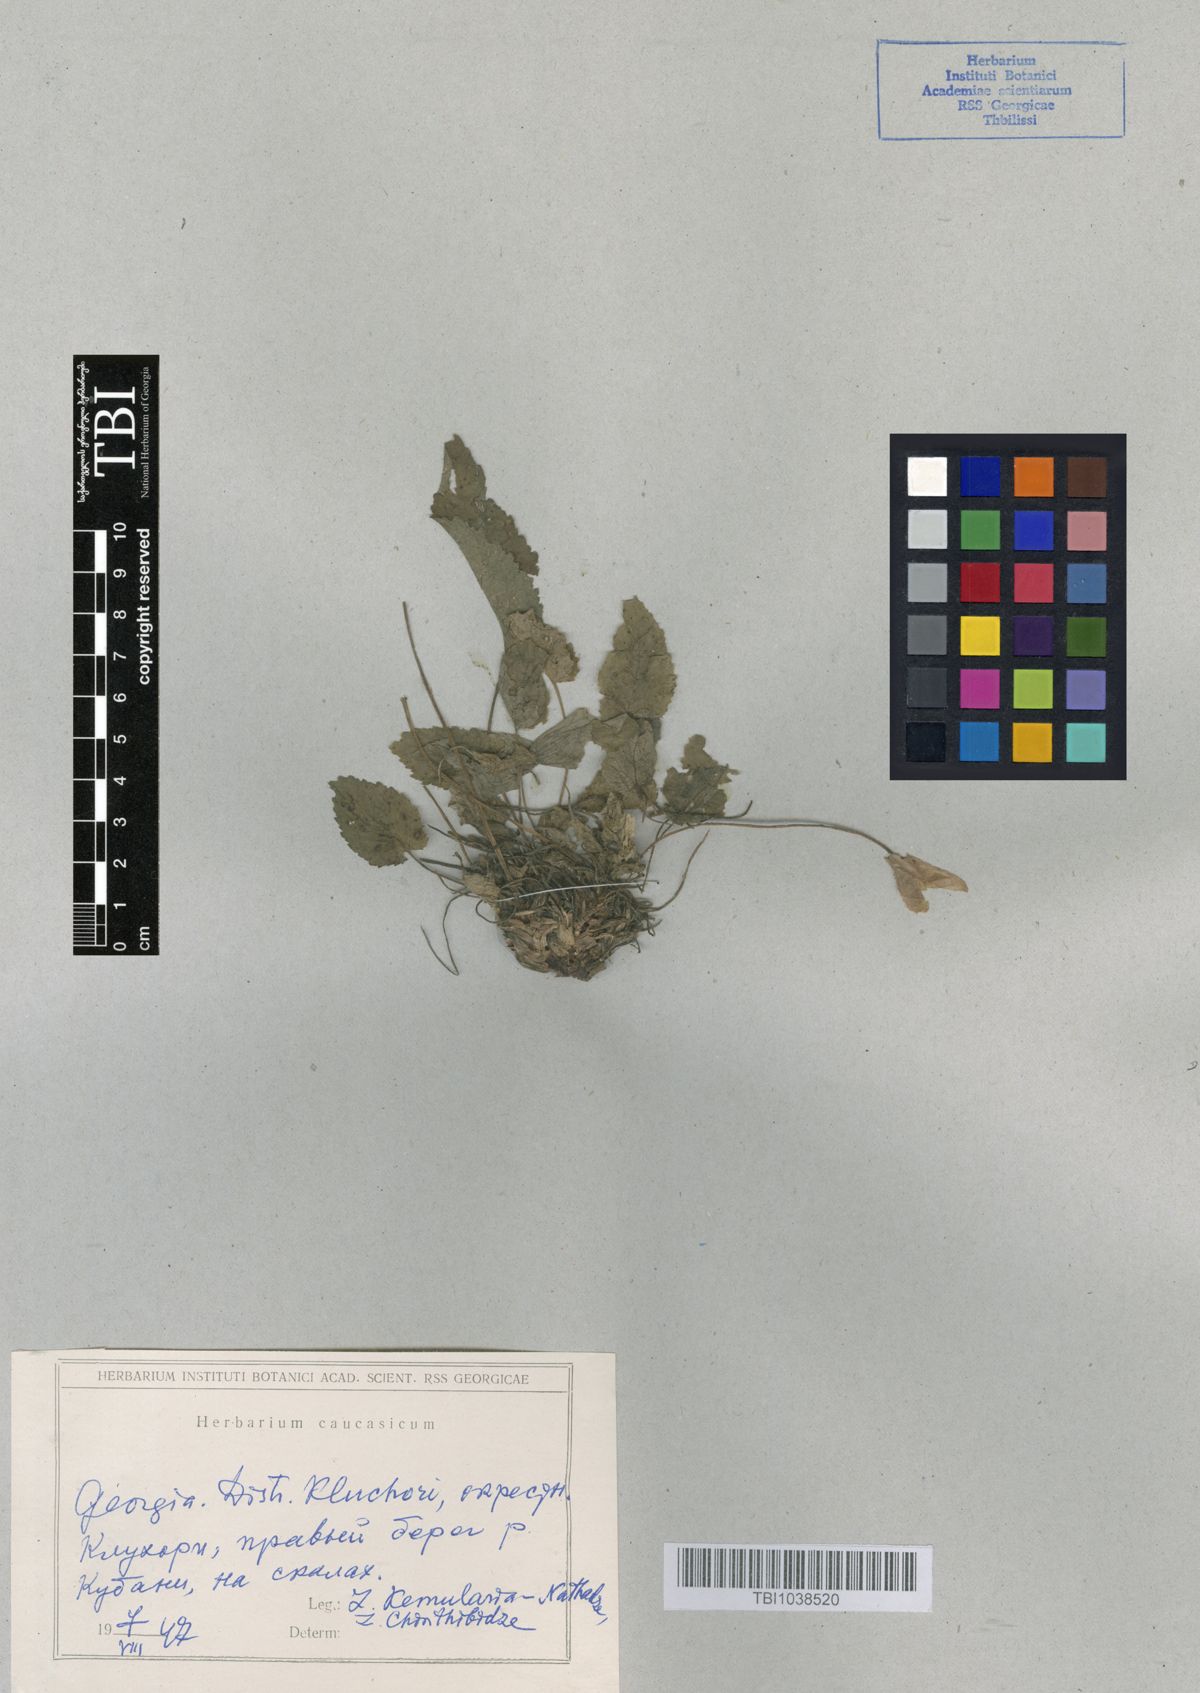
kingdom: Plantae
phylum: Tracheophyta
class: Magnoliopsida
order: Asterales
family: Campanulaceae
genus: Campanula
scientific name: Campanula pendula
